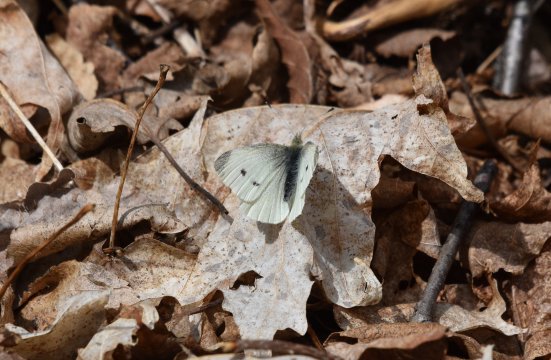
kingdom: Animalia
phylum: Arthropoda
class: Insecta
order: Lepidoptera
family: Pieridae
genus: Pieris
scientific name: Pieris rapae
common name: Cabbage White
